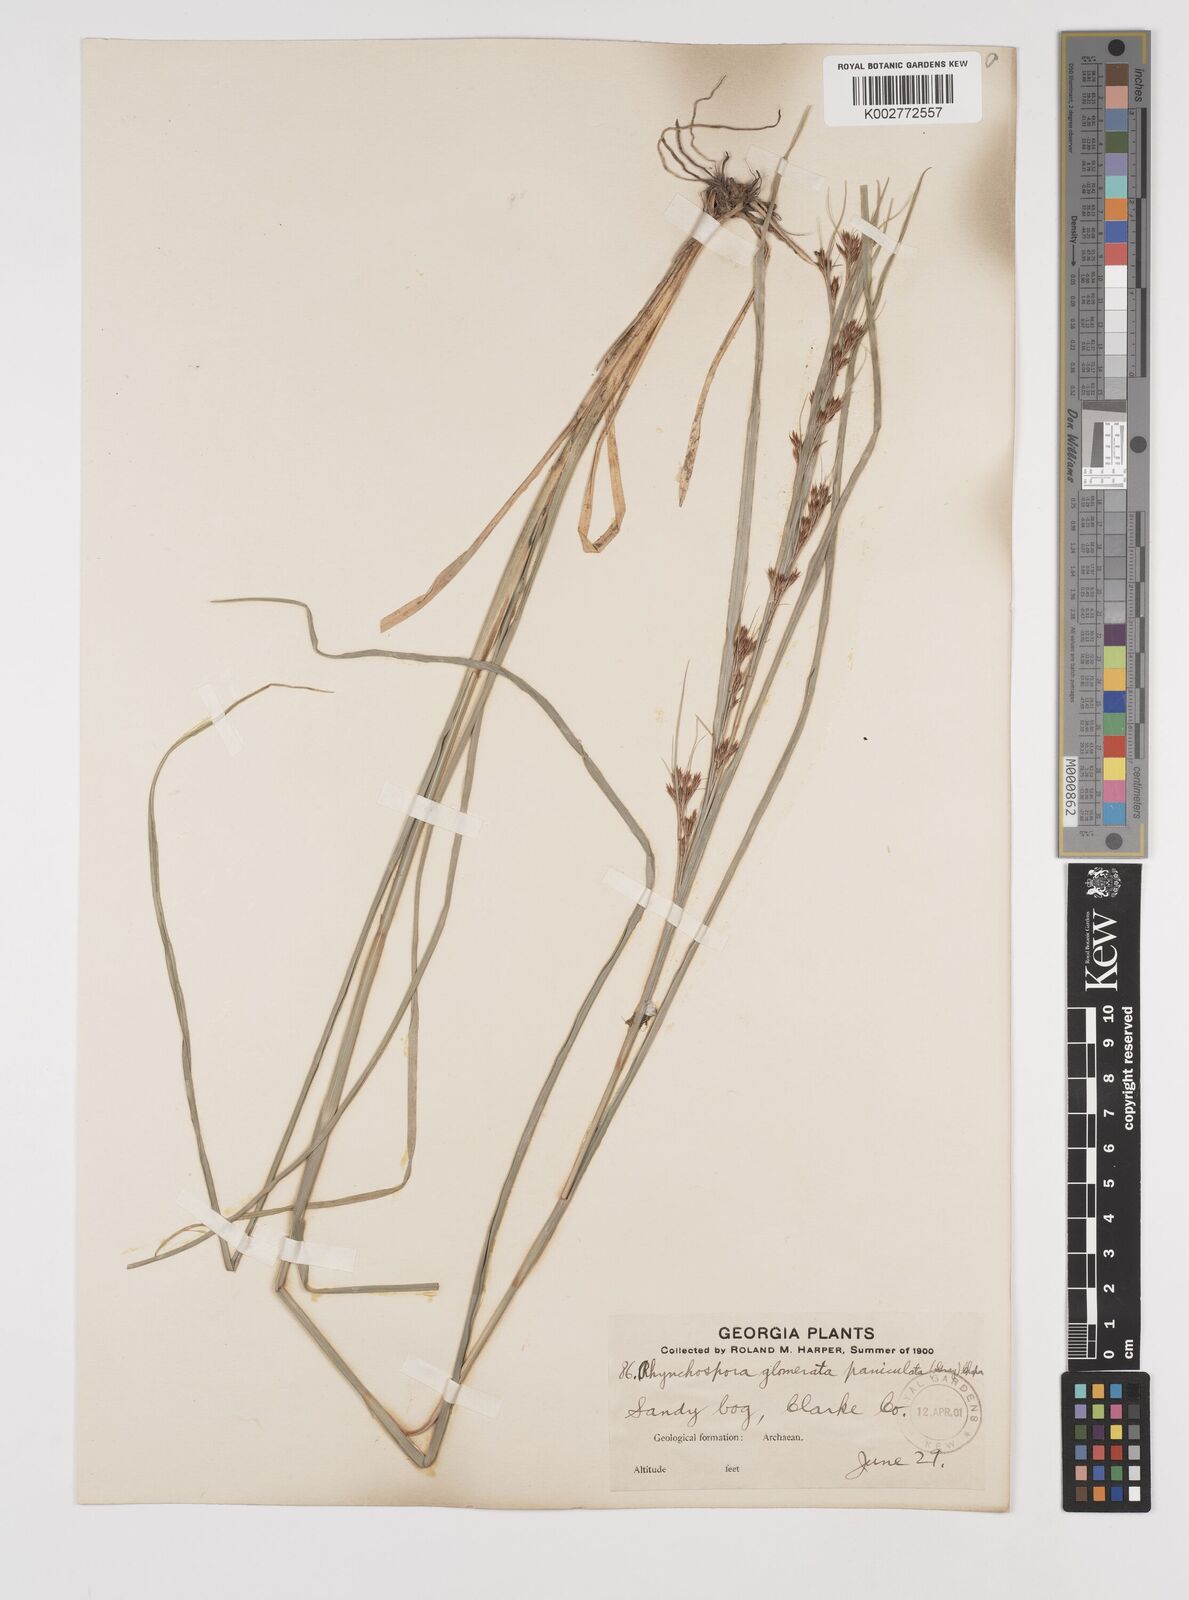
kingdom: Plantae
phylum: Tracheophyta
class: Liliopsida
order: Poales
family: Cyperaceae
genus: Rhynchospora
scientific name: Rhynchospora glomerata
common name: Cluster beak sedge
